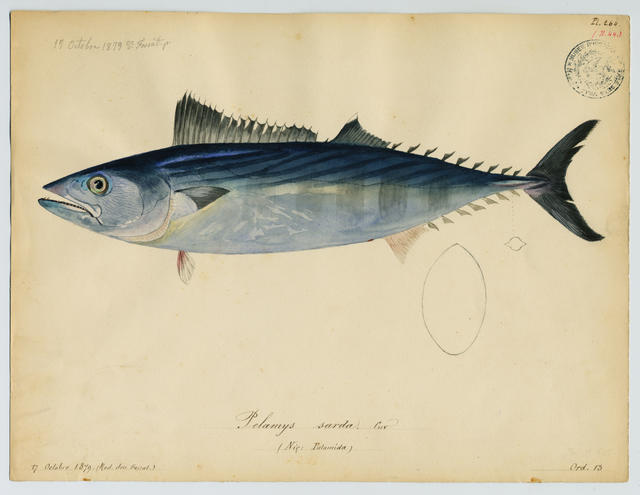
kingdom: Animalia
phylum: Chordata
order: Perciformes
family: Scombridae
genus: Sarda
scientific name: Sarda sarda
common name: Atlantic bonito
